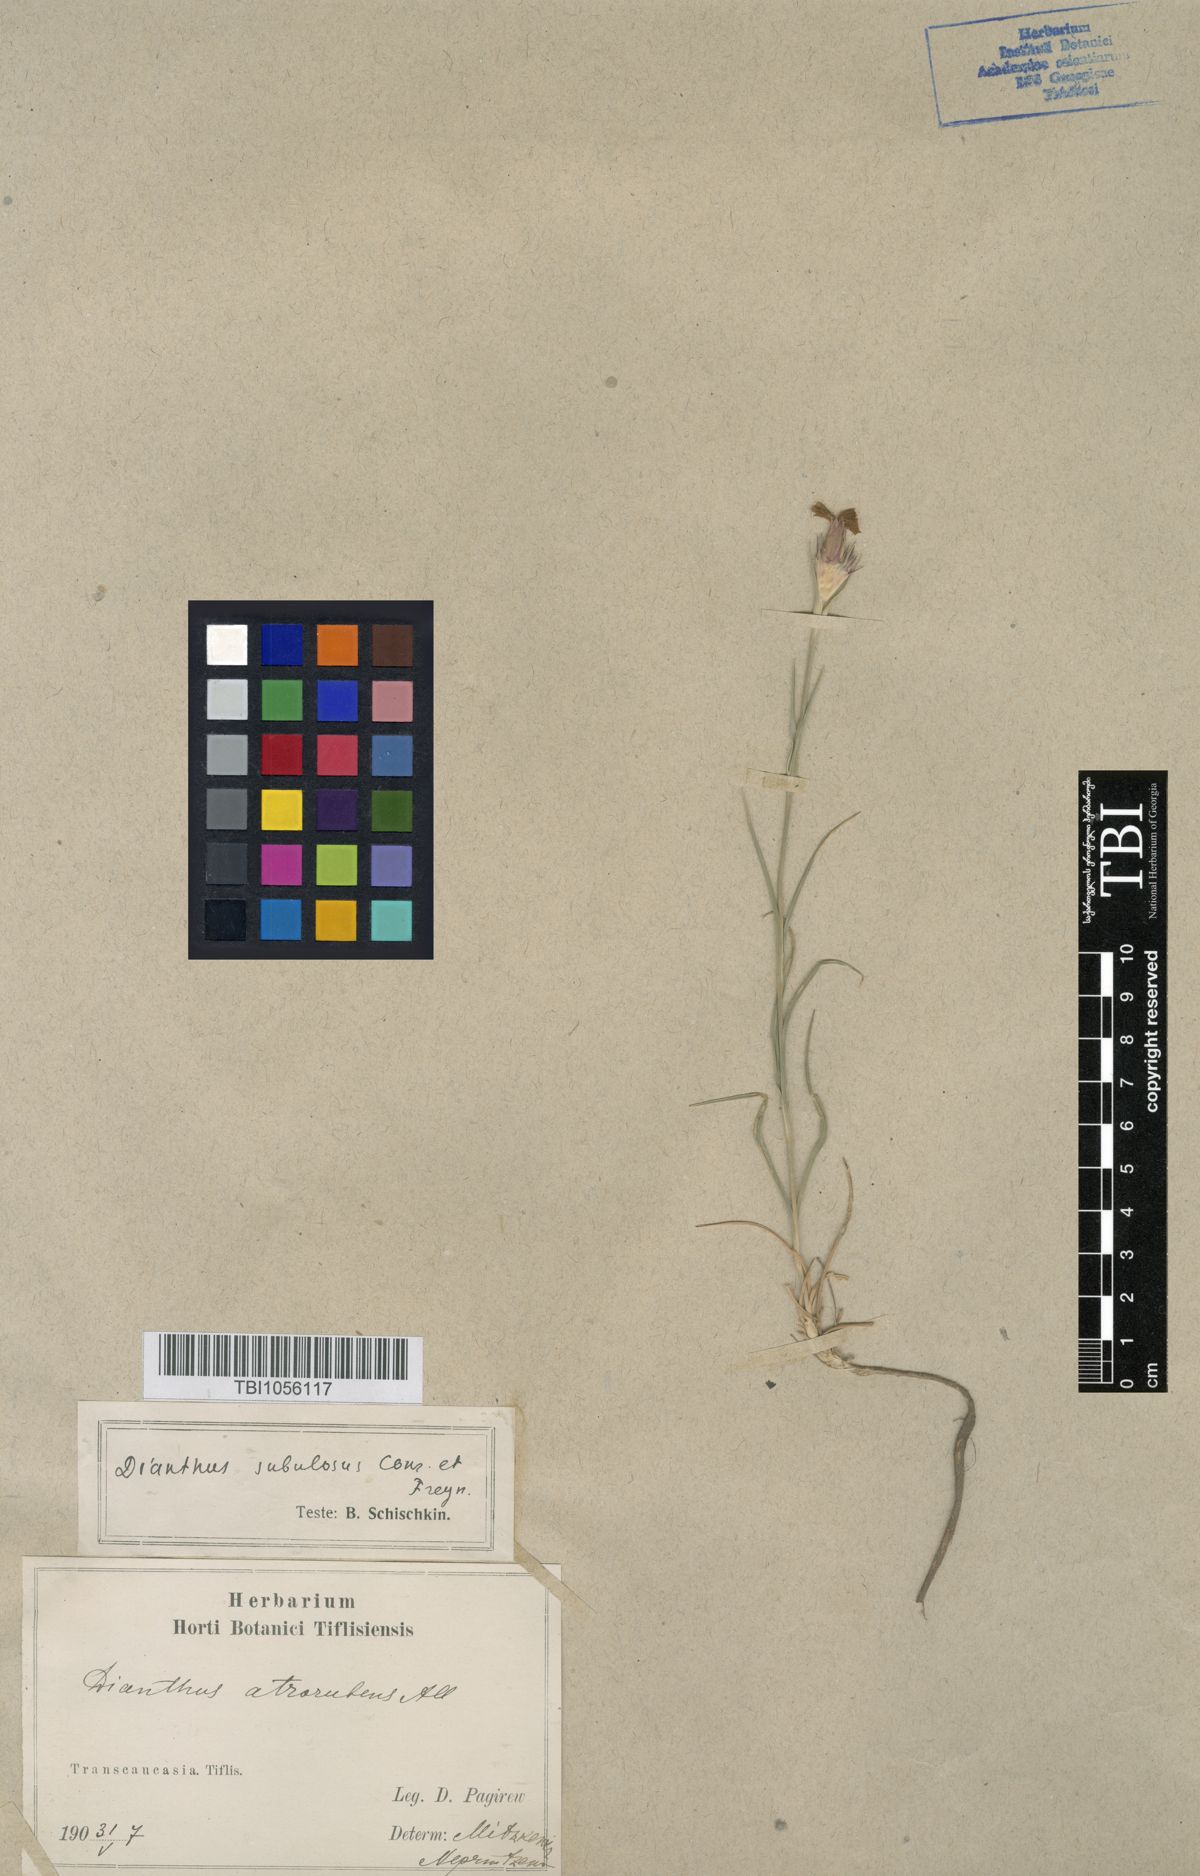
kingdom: Plantae
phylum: Tracheophyta
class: Magnoliopsida
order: Caryophyllales
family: Caryophyllaceae
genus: Dianthus
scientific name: Dianthus subulosus
